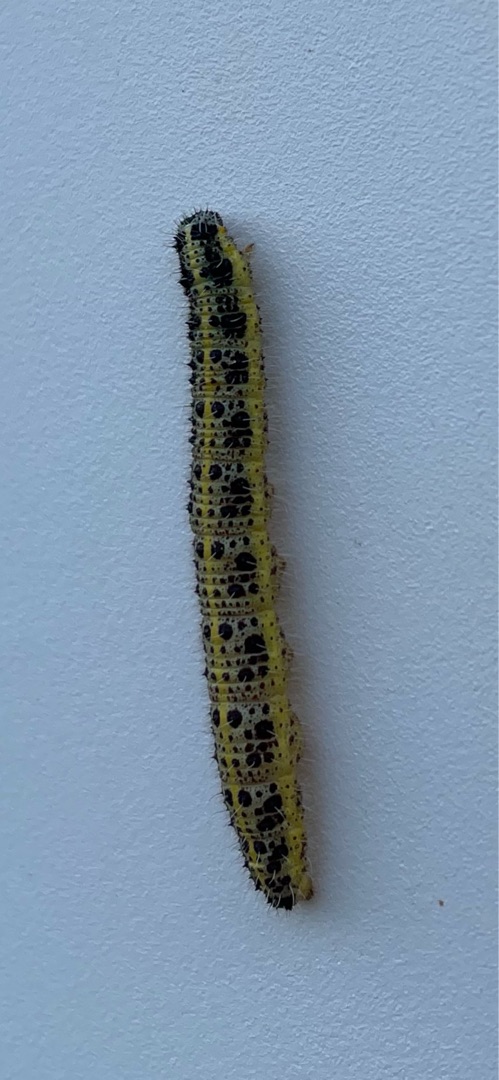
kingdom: Animalia
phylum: Arthropoda
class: Insecta
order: Lepidoptera
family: Pieridae
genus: Pieris
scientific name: Pieris brassicae
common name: Stor kålsommerfugl
